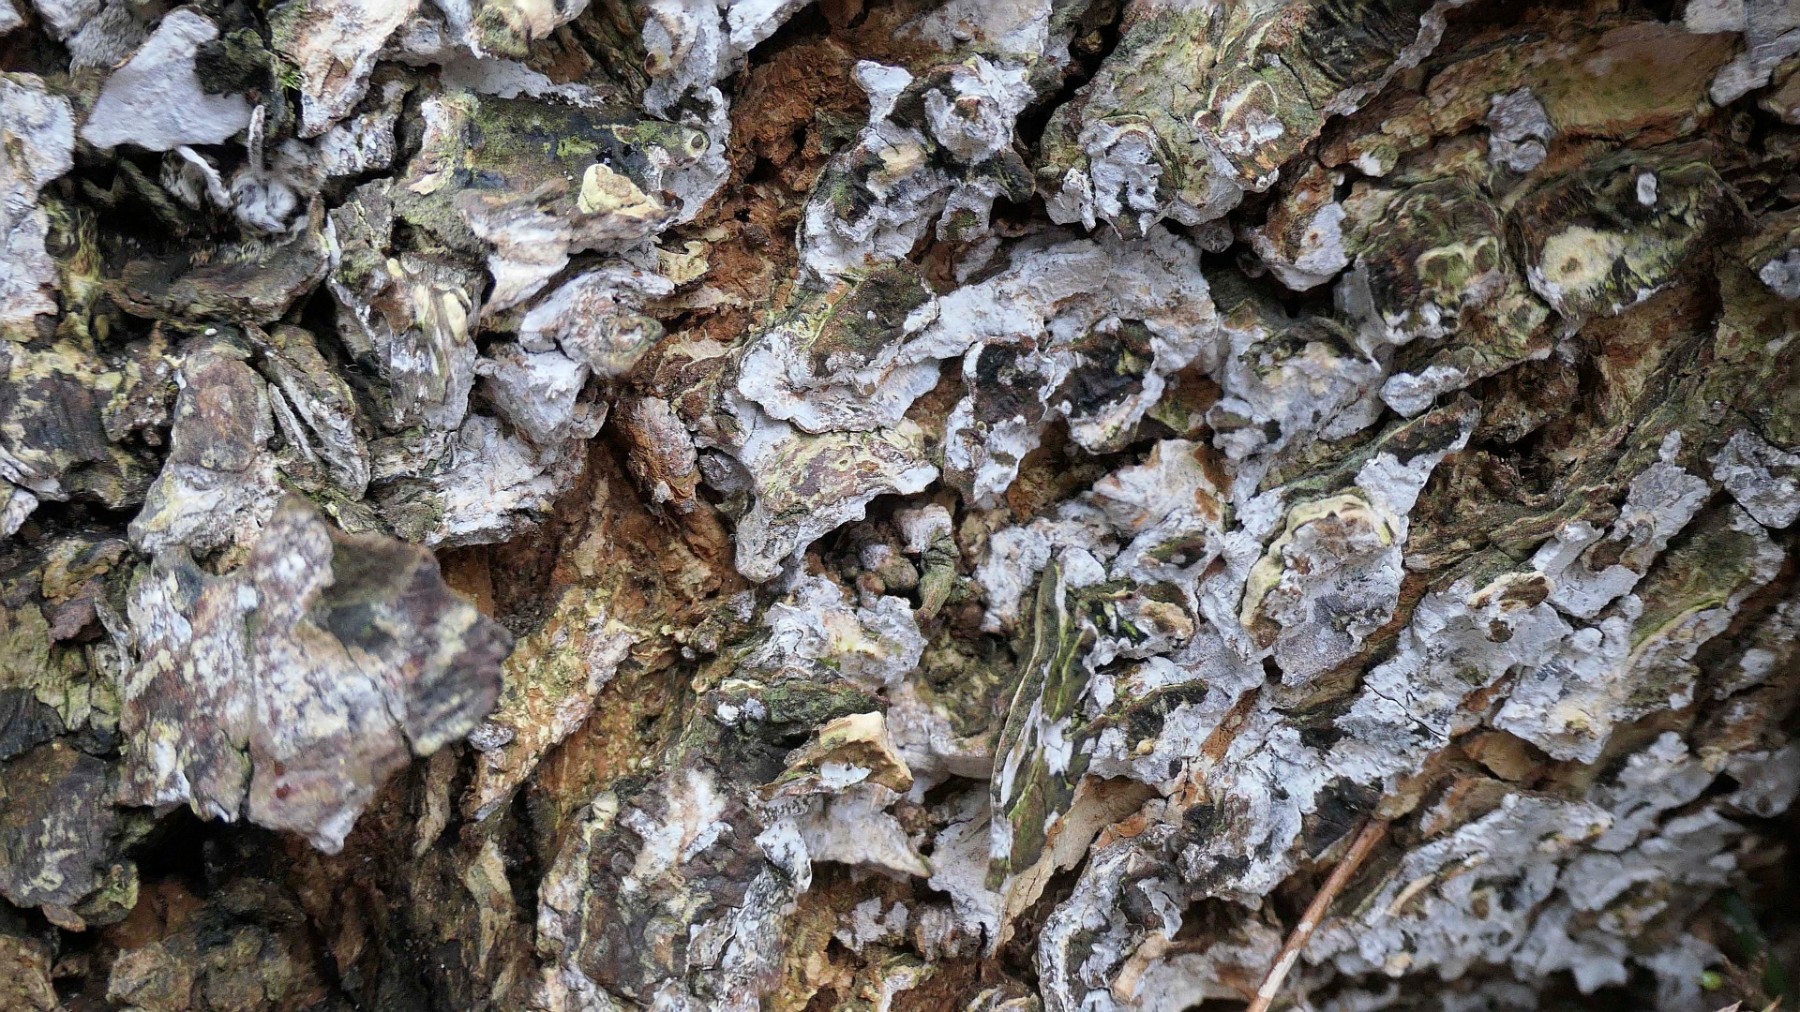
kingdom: Fungi
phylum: Basidiomycota
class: Agaricomycetes
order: Agaricales
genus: Dendrothele
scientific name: Dendrothele acerina
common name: navr-kalkplet
